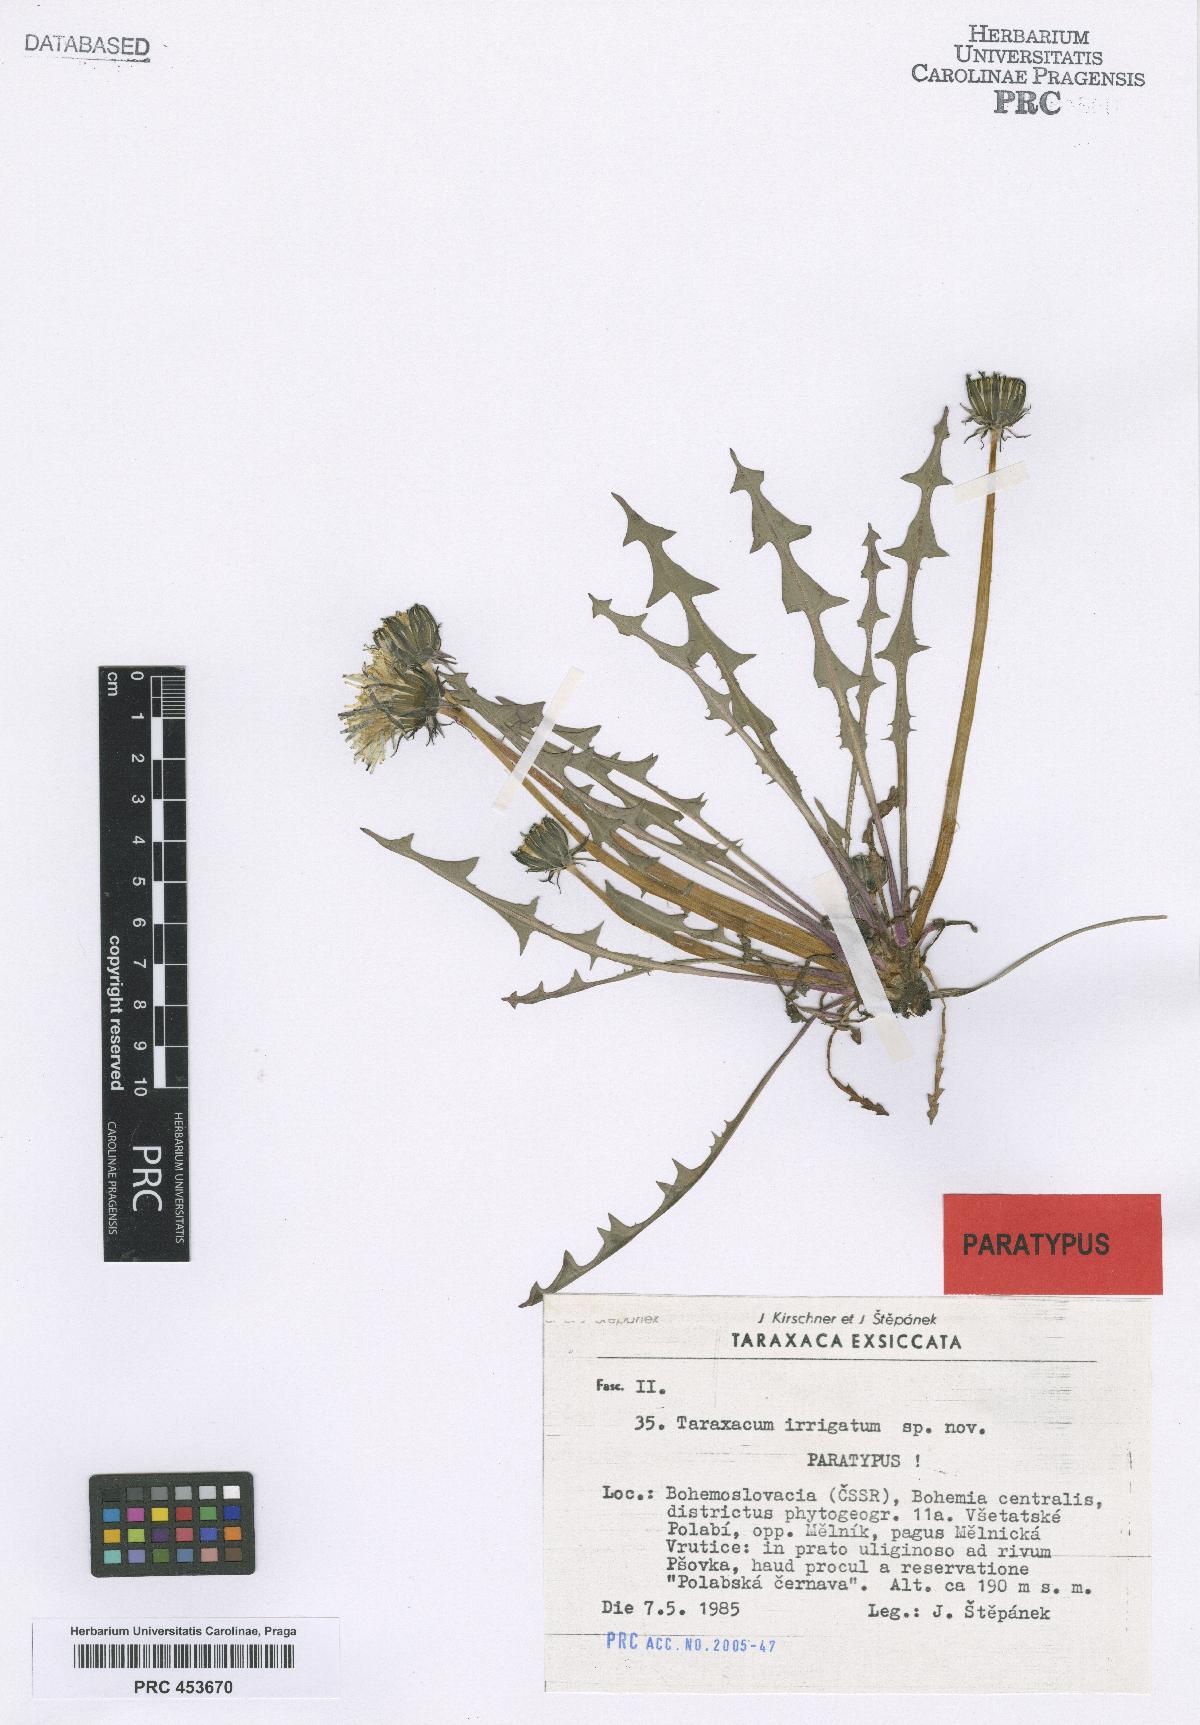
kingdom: Plantae
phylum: Tracheophyta
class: Magnoliopsida
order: Asterales
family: Asteraceae
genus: Taraxacum
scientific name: Taraxacum pseudopalustre
